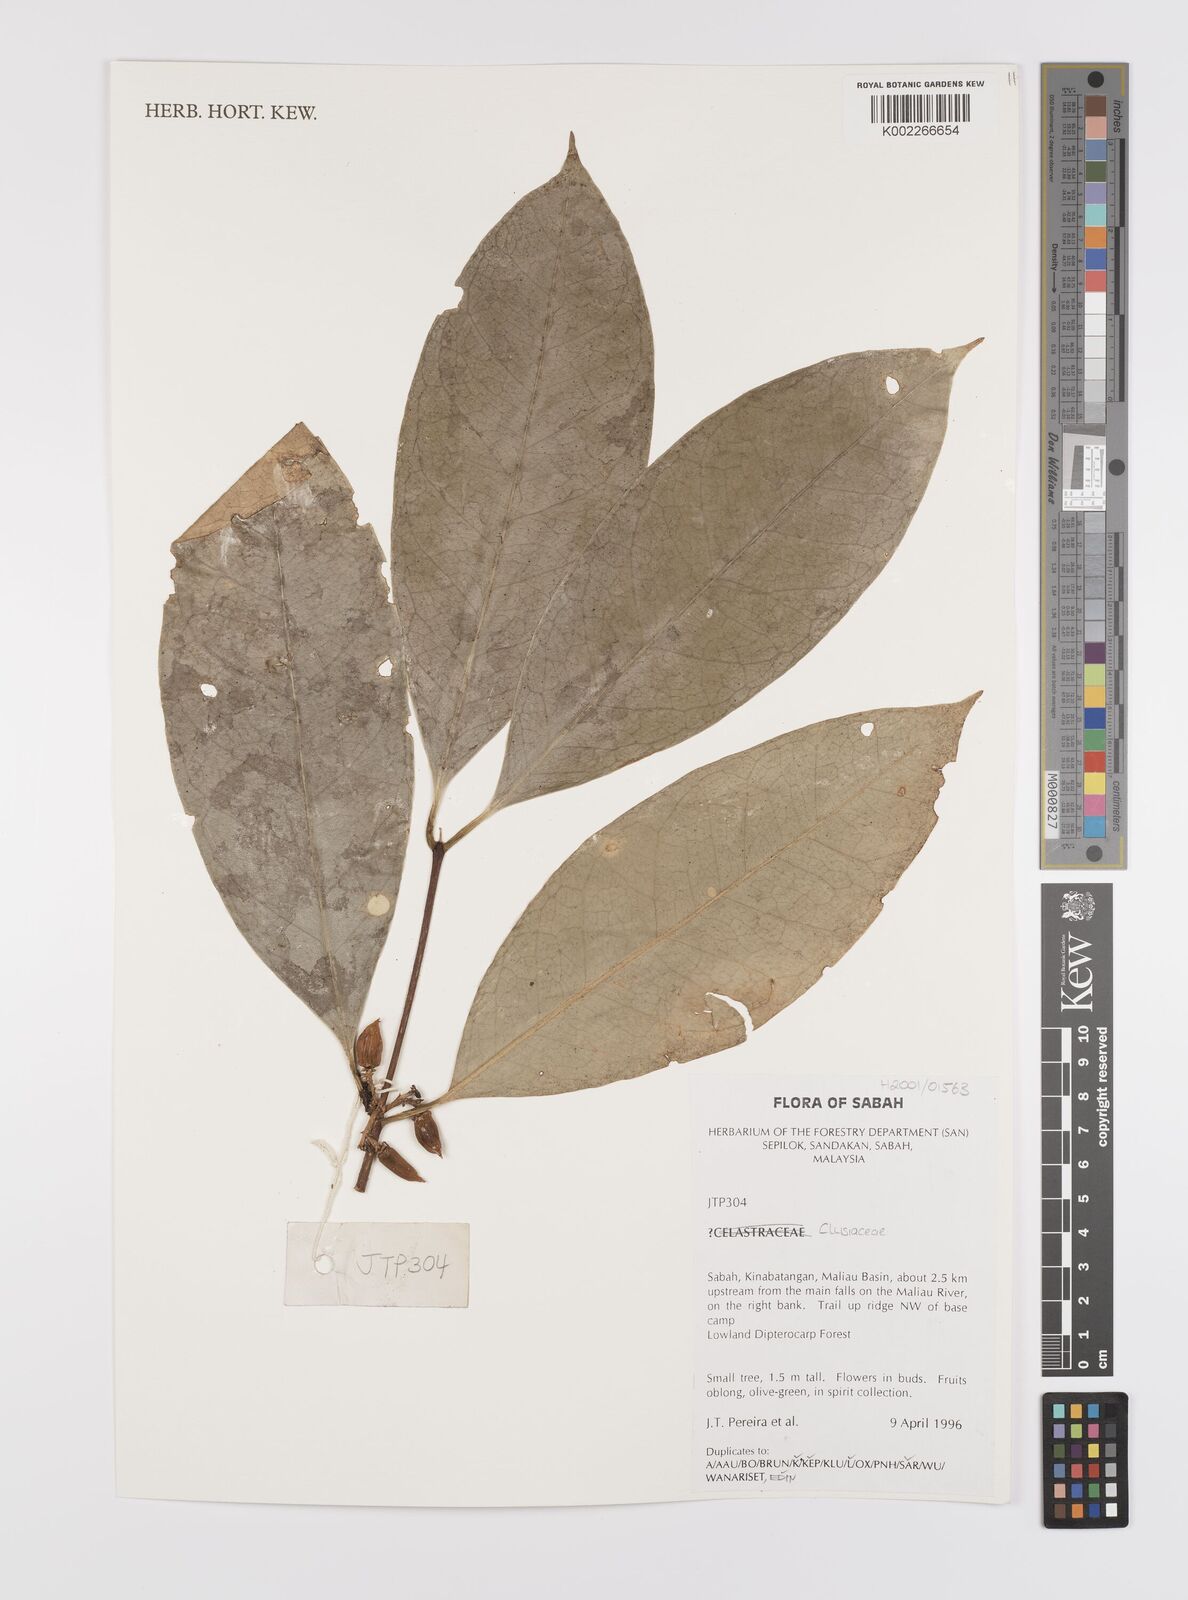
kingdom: Plantae
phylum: Tracheophyta
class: Magnoliopsida
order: Celastrales
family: Celastraceae
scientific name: Celastraceae
